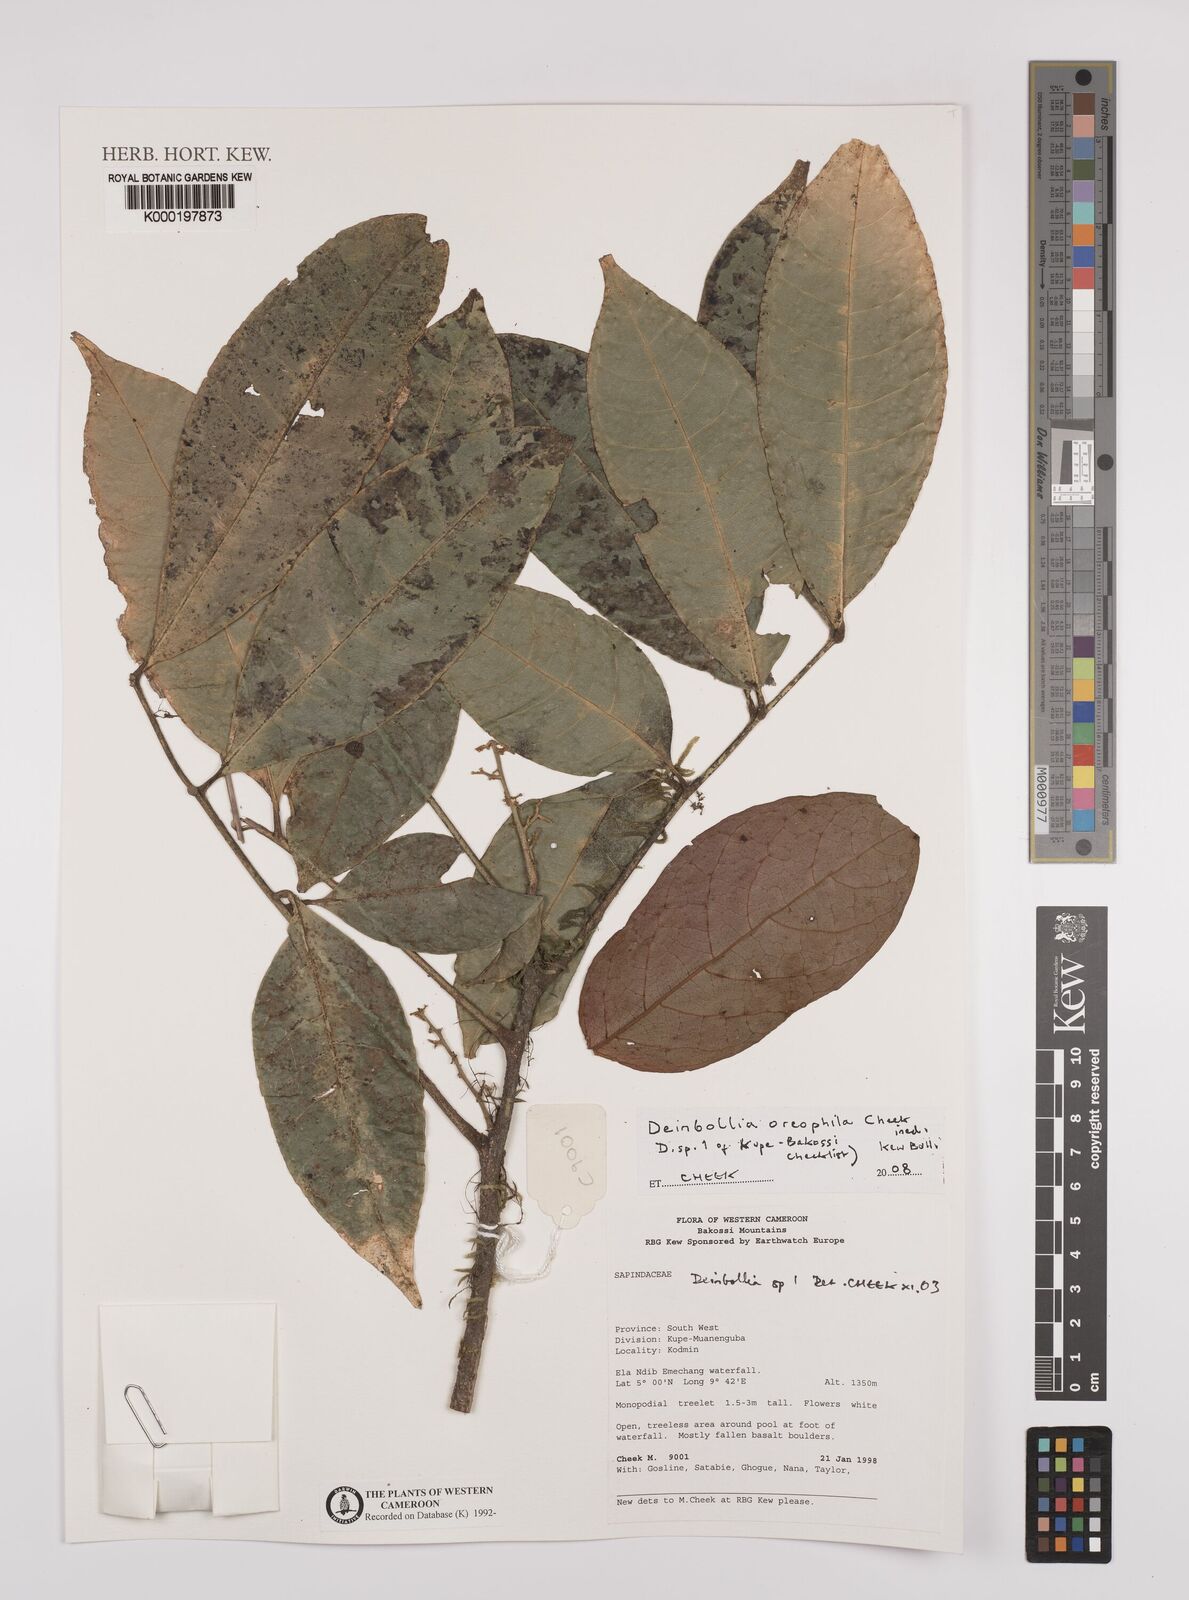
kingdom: Plantae
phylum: Tracheophyta
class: Magnoliopsida
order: Sapindales
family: Sapindaceae
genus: Deinbollia
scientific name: Deinbollia oreophila
